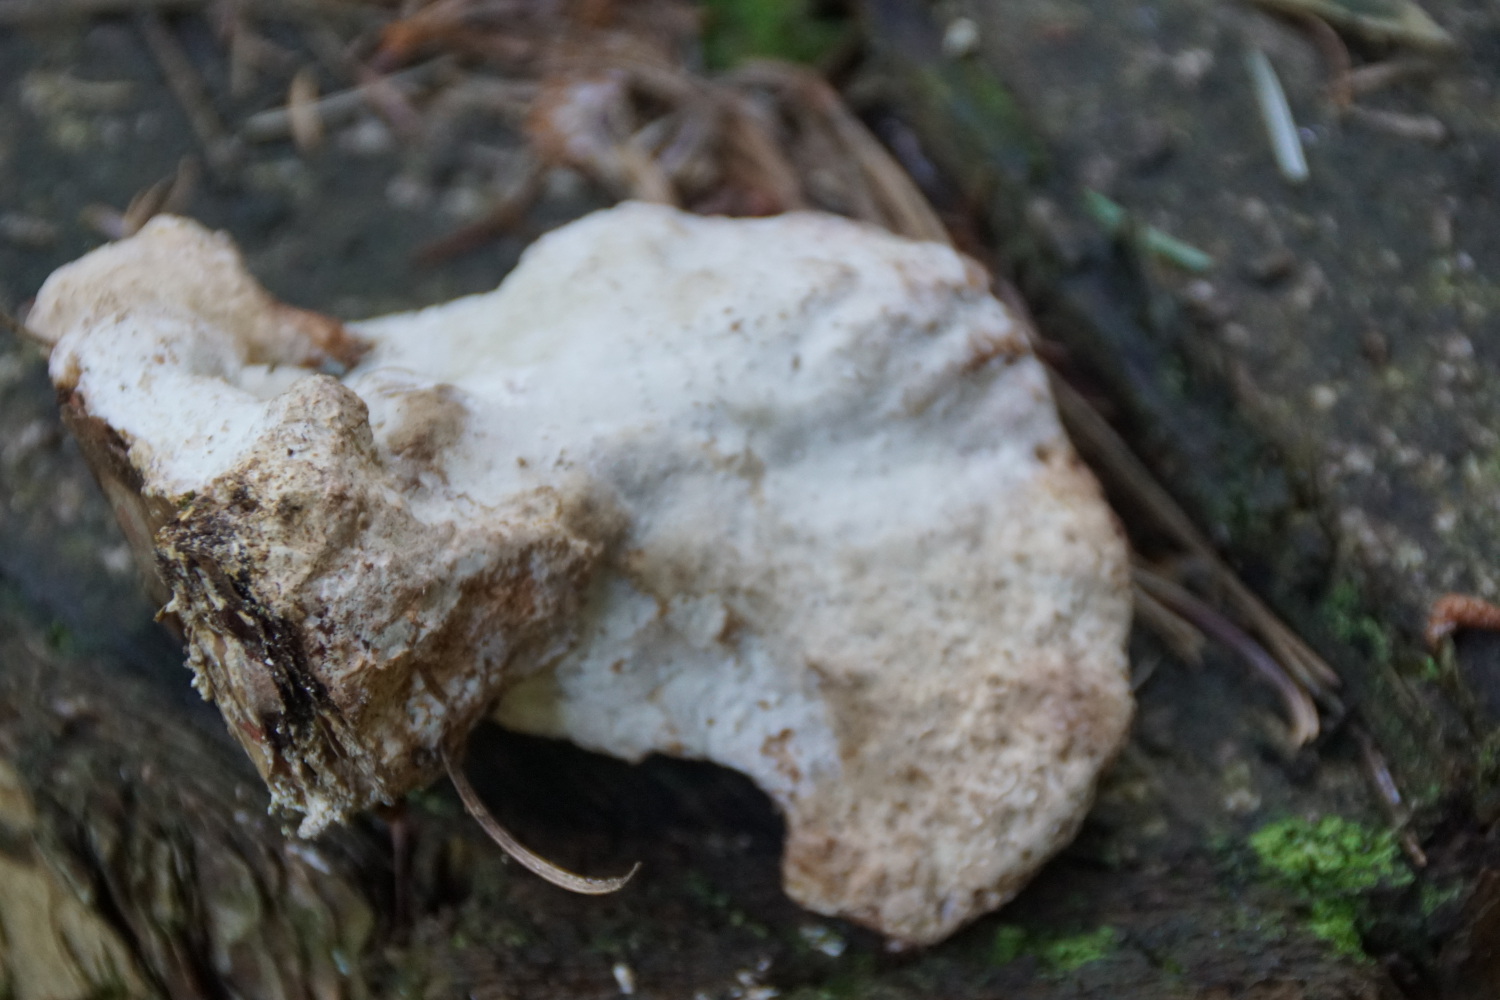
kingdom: Fungi
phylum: Basidiomycota
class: Agaricomycetes
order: Polyporales
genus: Calcipostia
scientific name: Calcipostia guttulata
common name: dråbe-kødporesvamp
